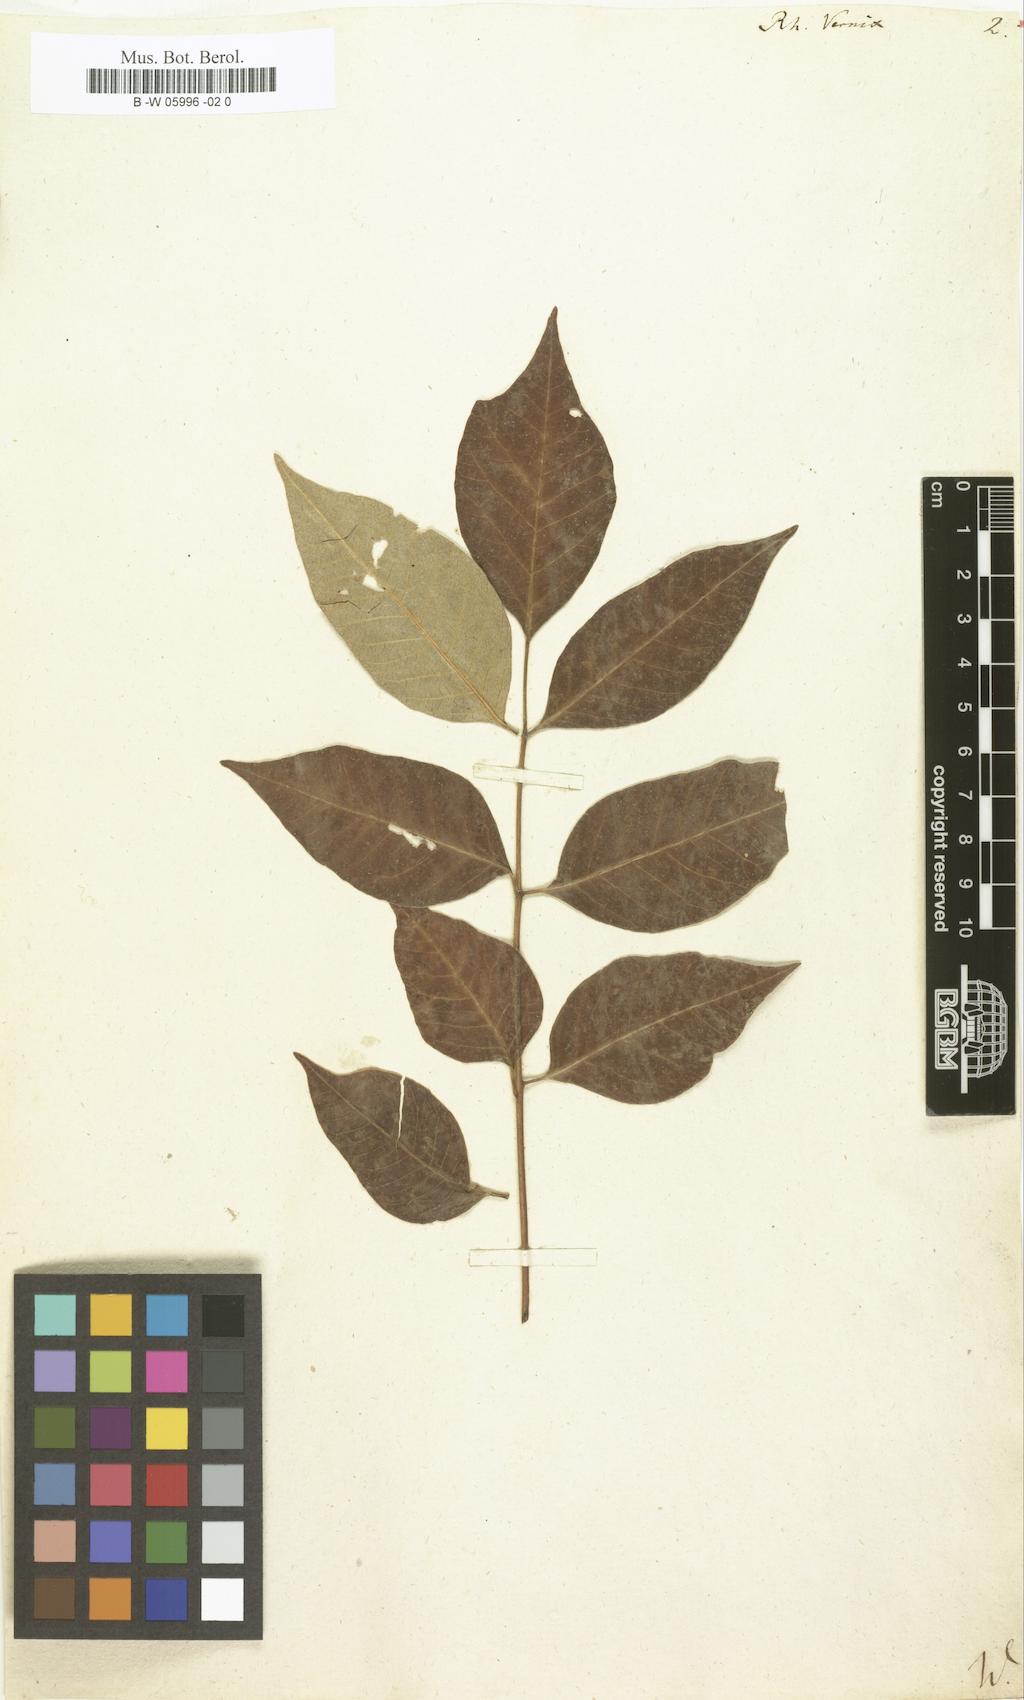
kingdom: Plantae
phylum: Tracheophyta
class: Magnoliopsida
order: Sapindales
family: Anacardiaceae
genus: Toxicodendron
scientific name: Toxicodendron
